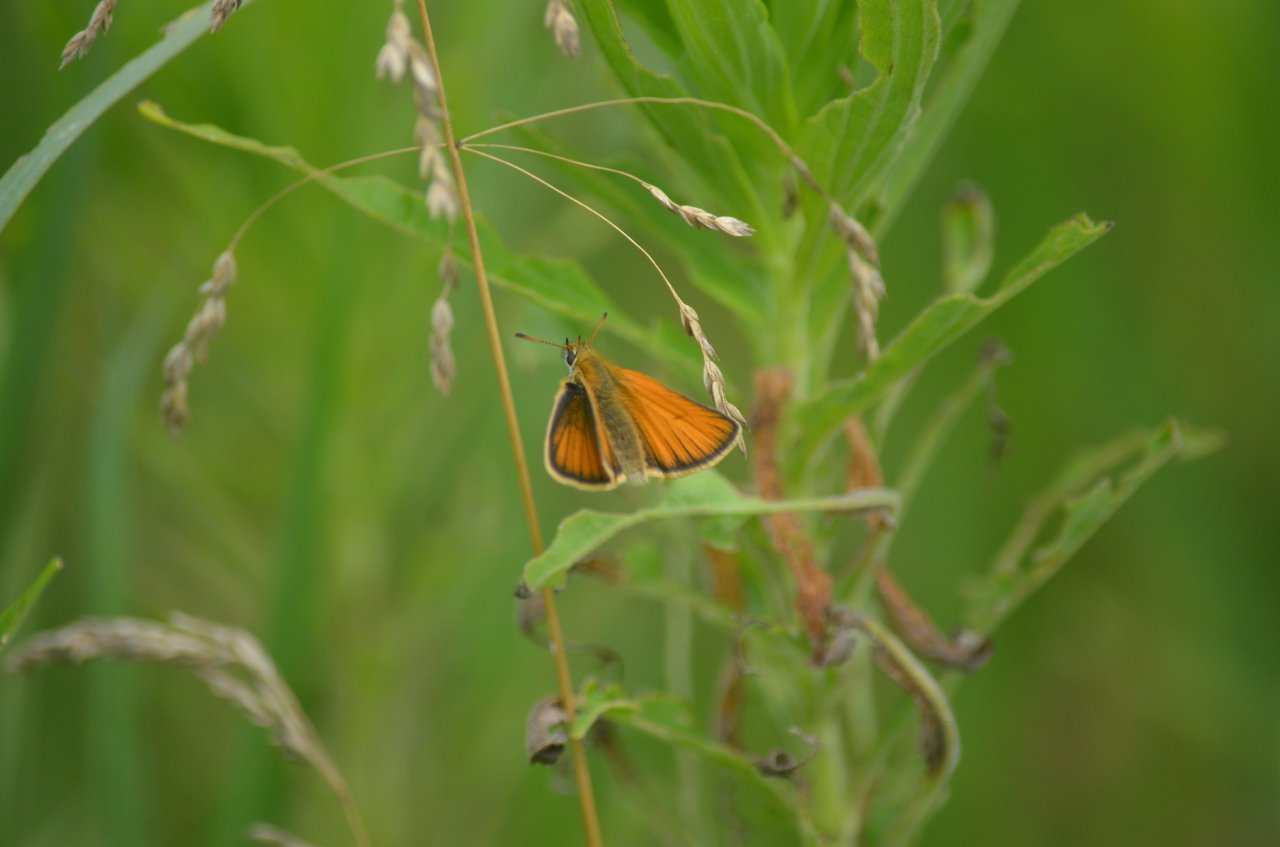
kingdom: Animalia
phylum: Arthropoda
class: Insecta
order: Lepidoptera
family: Hesperiidae
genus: Thymelicus
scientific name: Thymelicus lineola
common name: European Skipper
